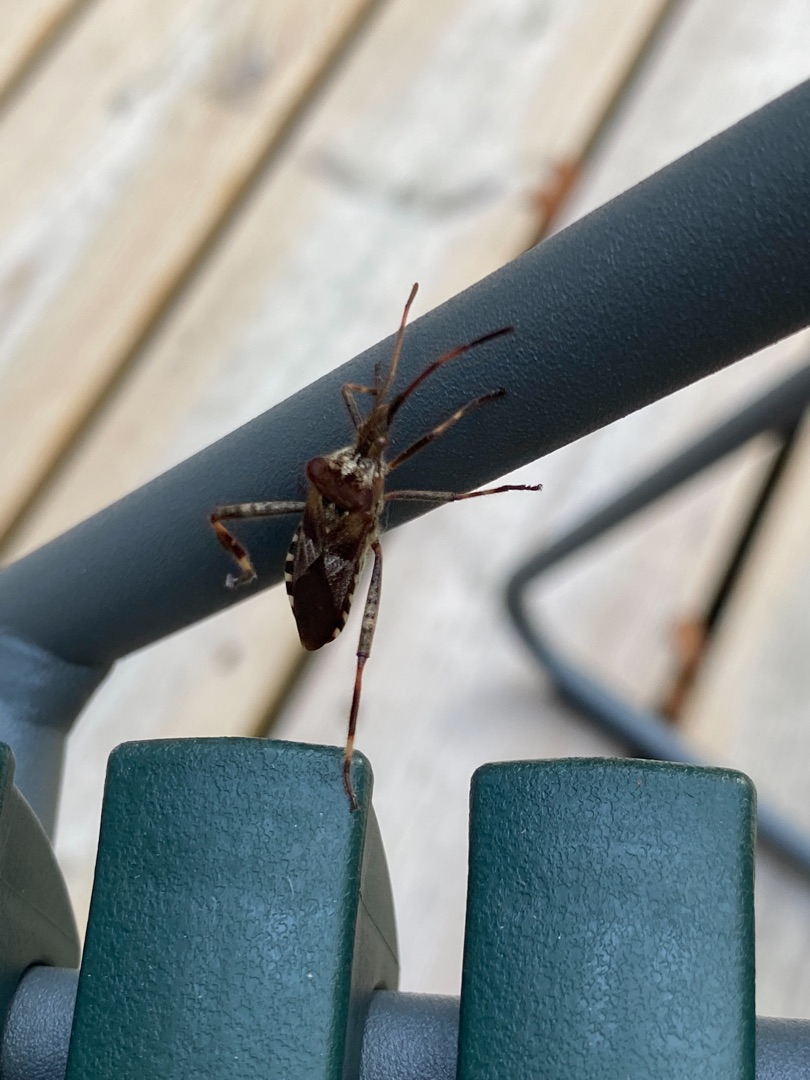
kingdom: Animalia
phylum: Arthropoda
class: Insecta
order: Hemiptera
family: Coreidae
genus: Leptoglossus
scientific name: Leptoglossus occidentalis
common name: Amerikansk fyrretæge
